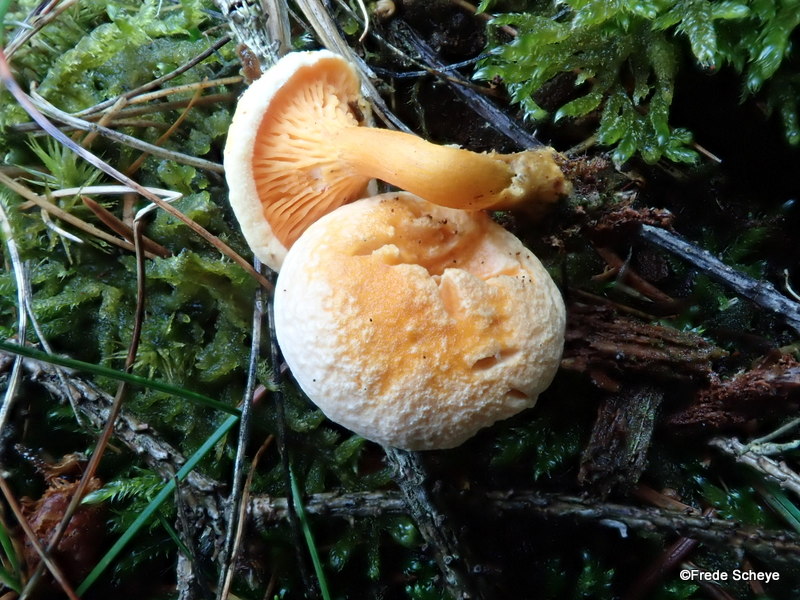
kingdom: Fungi
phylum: Basidiomycota
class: Agaricomycetes
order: Boletales
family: Hygrophoropsidaceae
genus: Hygrophoropsis
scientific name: Hygrophoropsis aurantiaca
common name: almindelig orangekantarel
